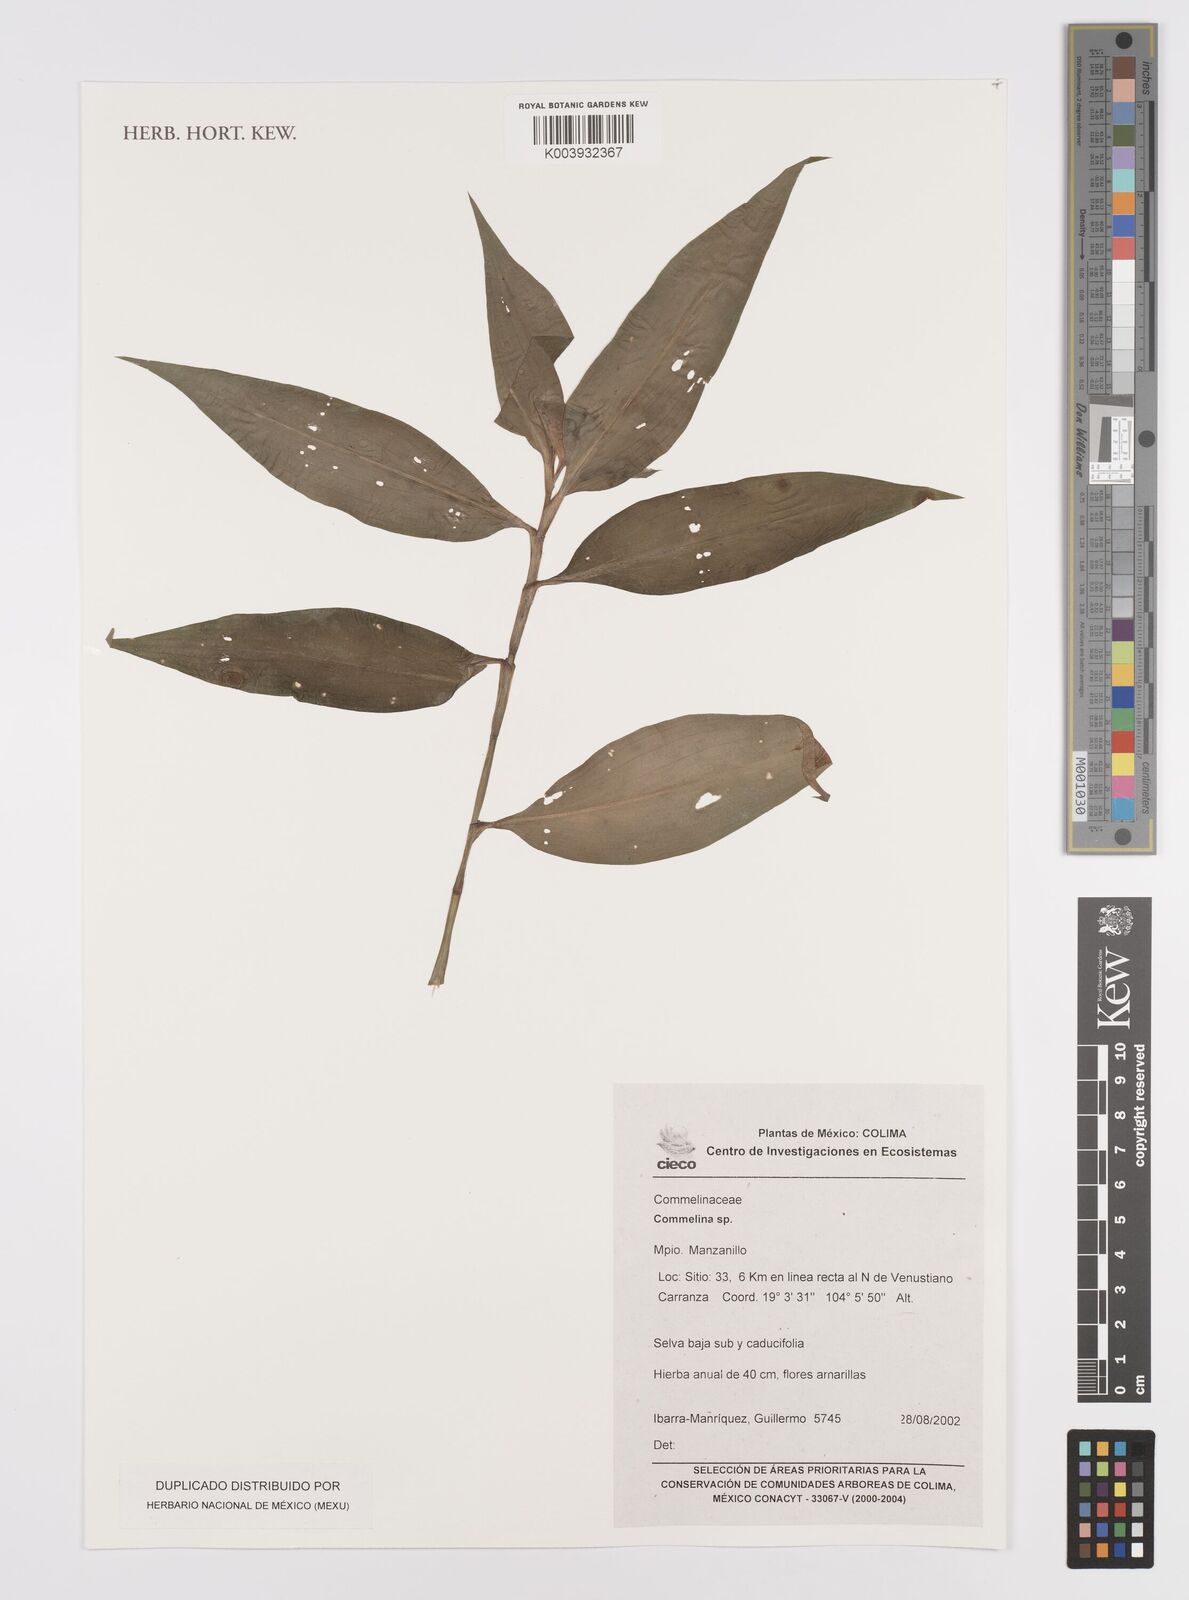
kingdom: Plantae
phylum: Tracheophyta
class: Liliopsida
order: Commelinales
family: Commelinaceae
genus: Commelina
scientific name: Commelina
